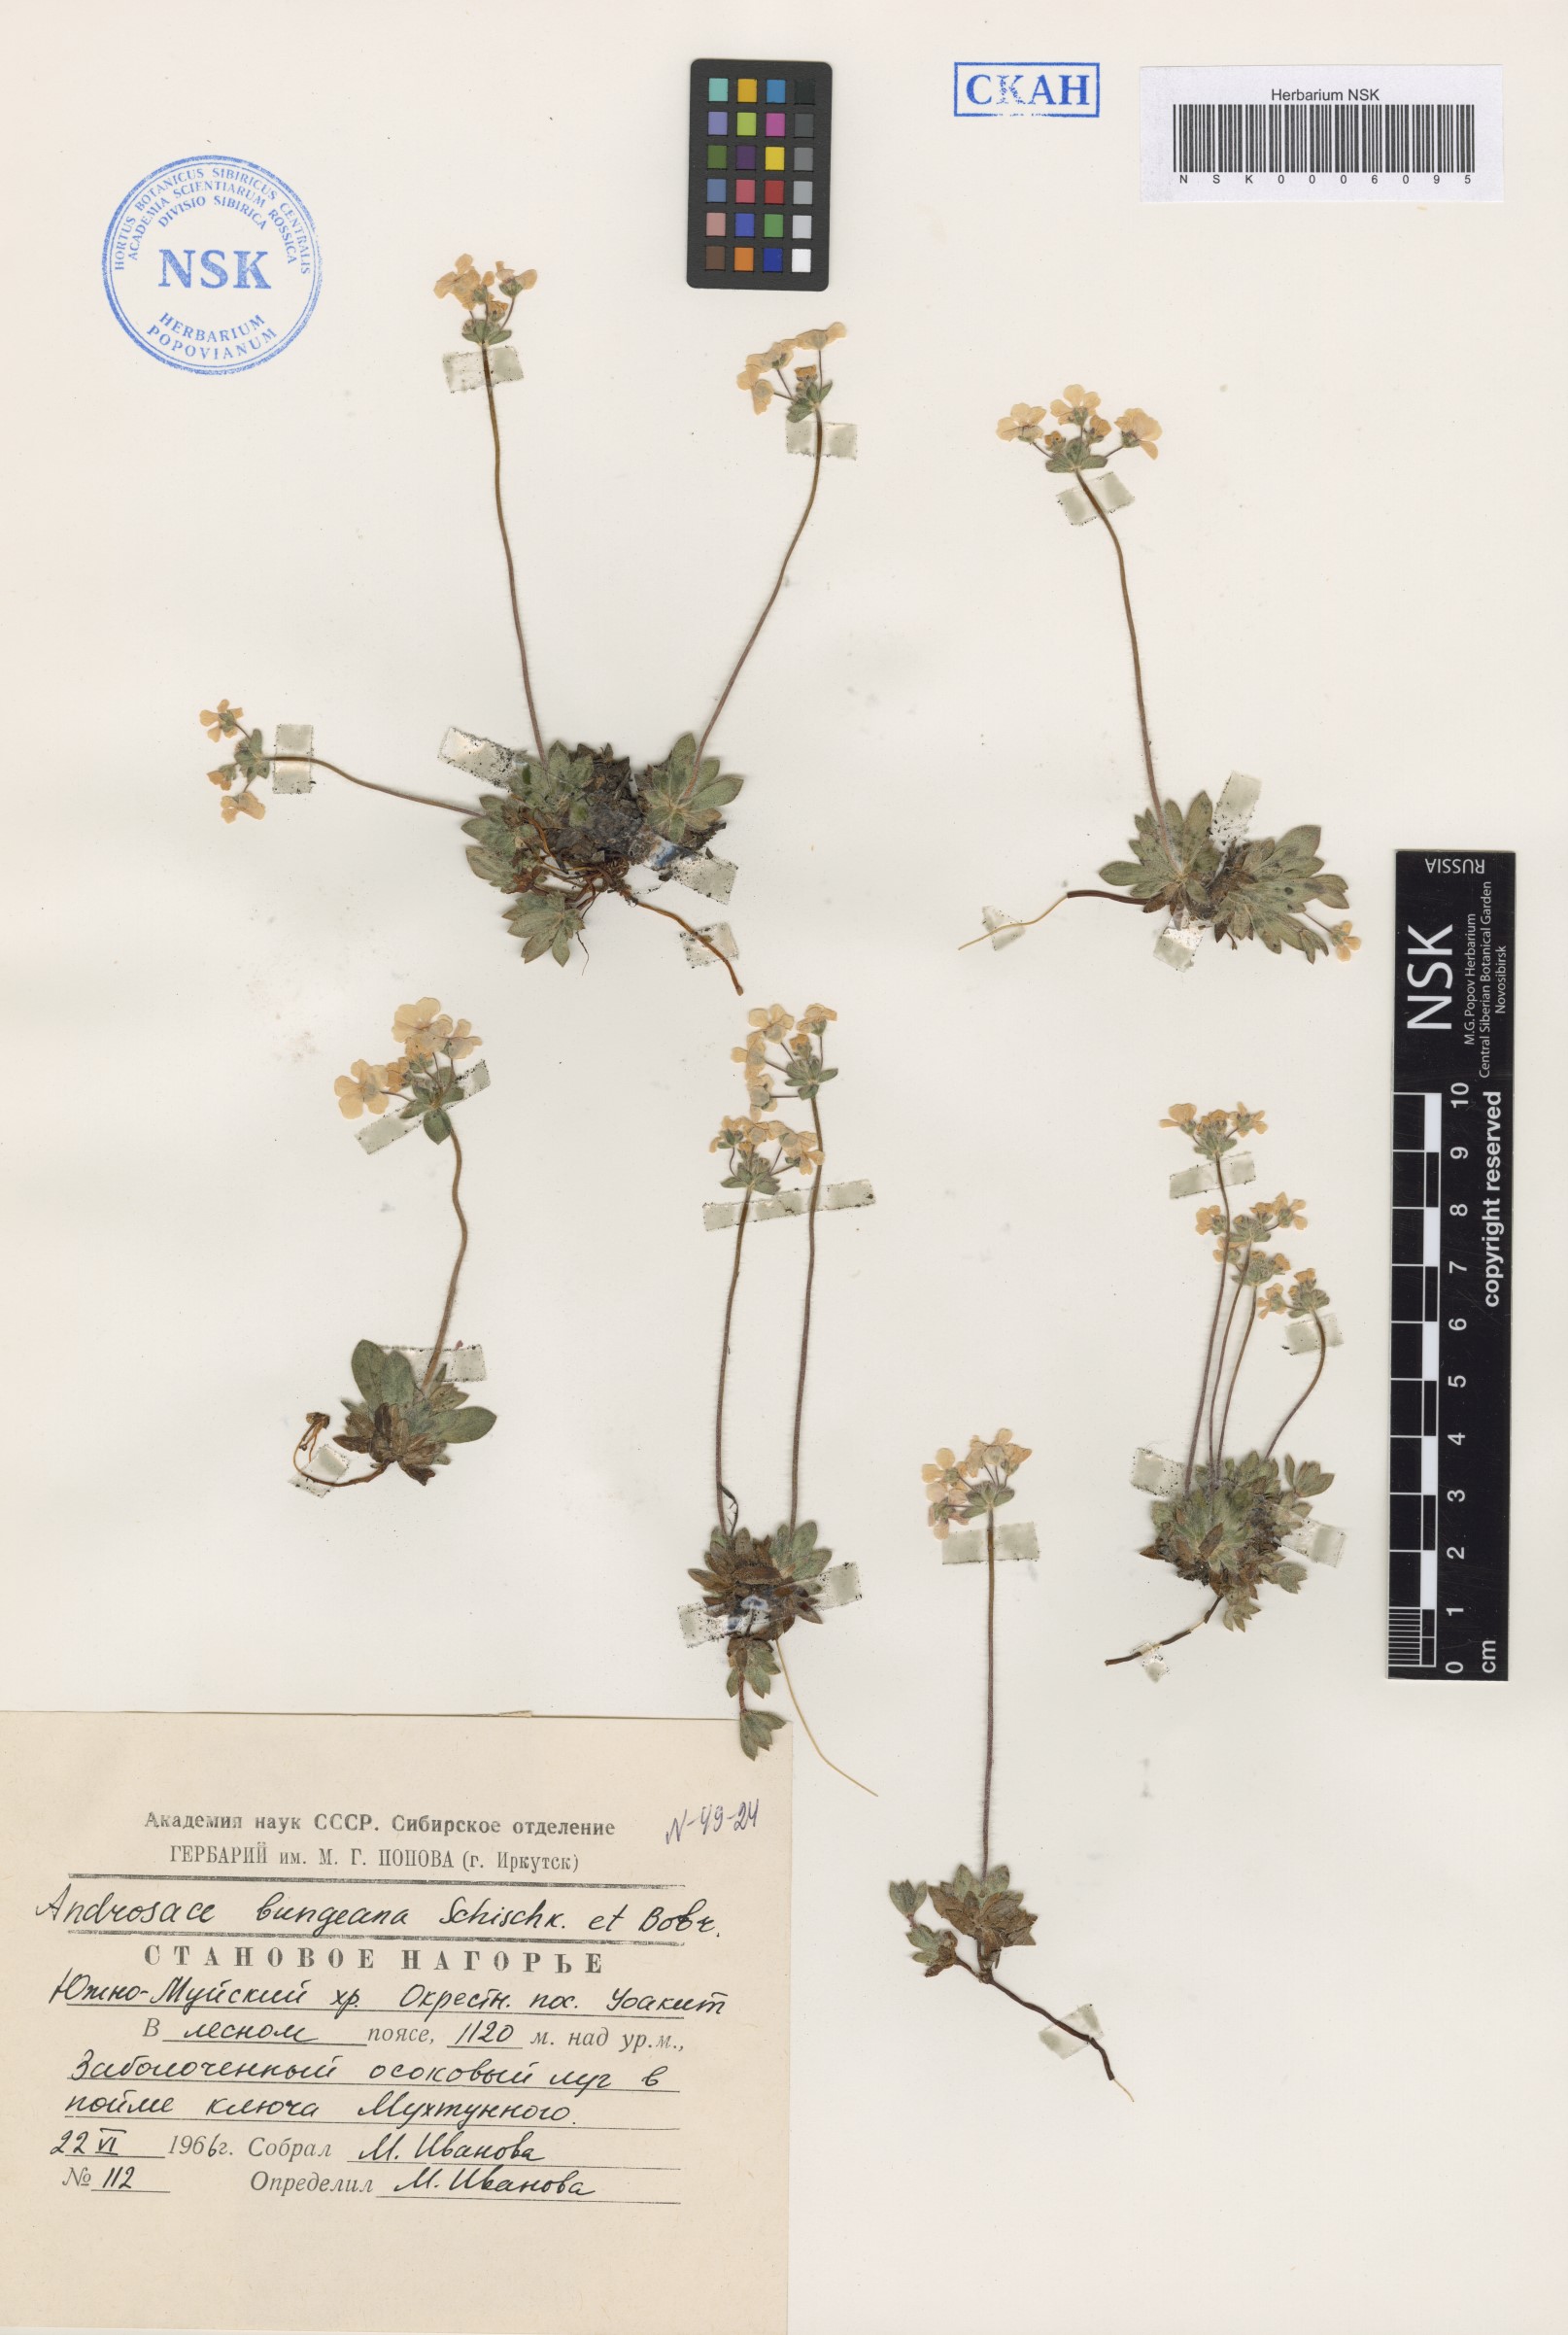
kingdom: Plantae
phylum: Tracheophyta
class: Magnoliopsida
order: Ericales
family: Primulaceae
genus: Androsace
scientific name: Androsace bungeana
